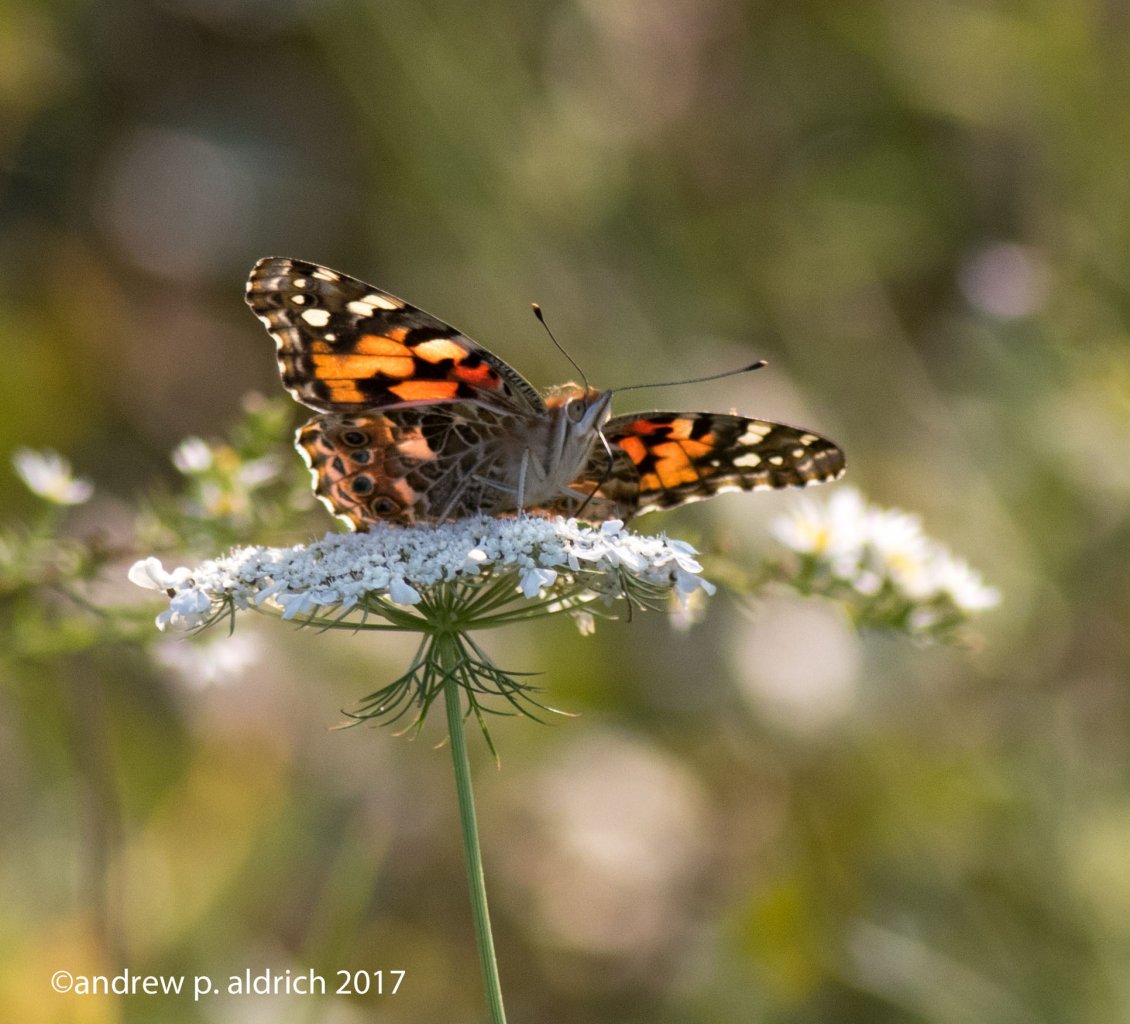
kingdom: Animalia
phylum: Arthropoda
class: Insecta
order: Lepidoptera
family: Nymphalidae
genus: Vanessa
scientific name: Vanessa cardui
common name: Painted Lady
